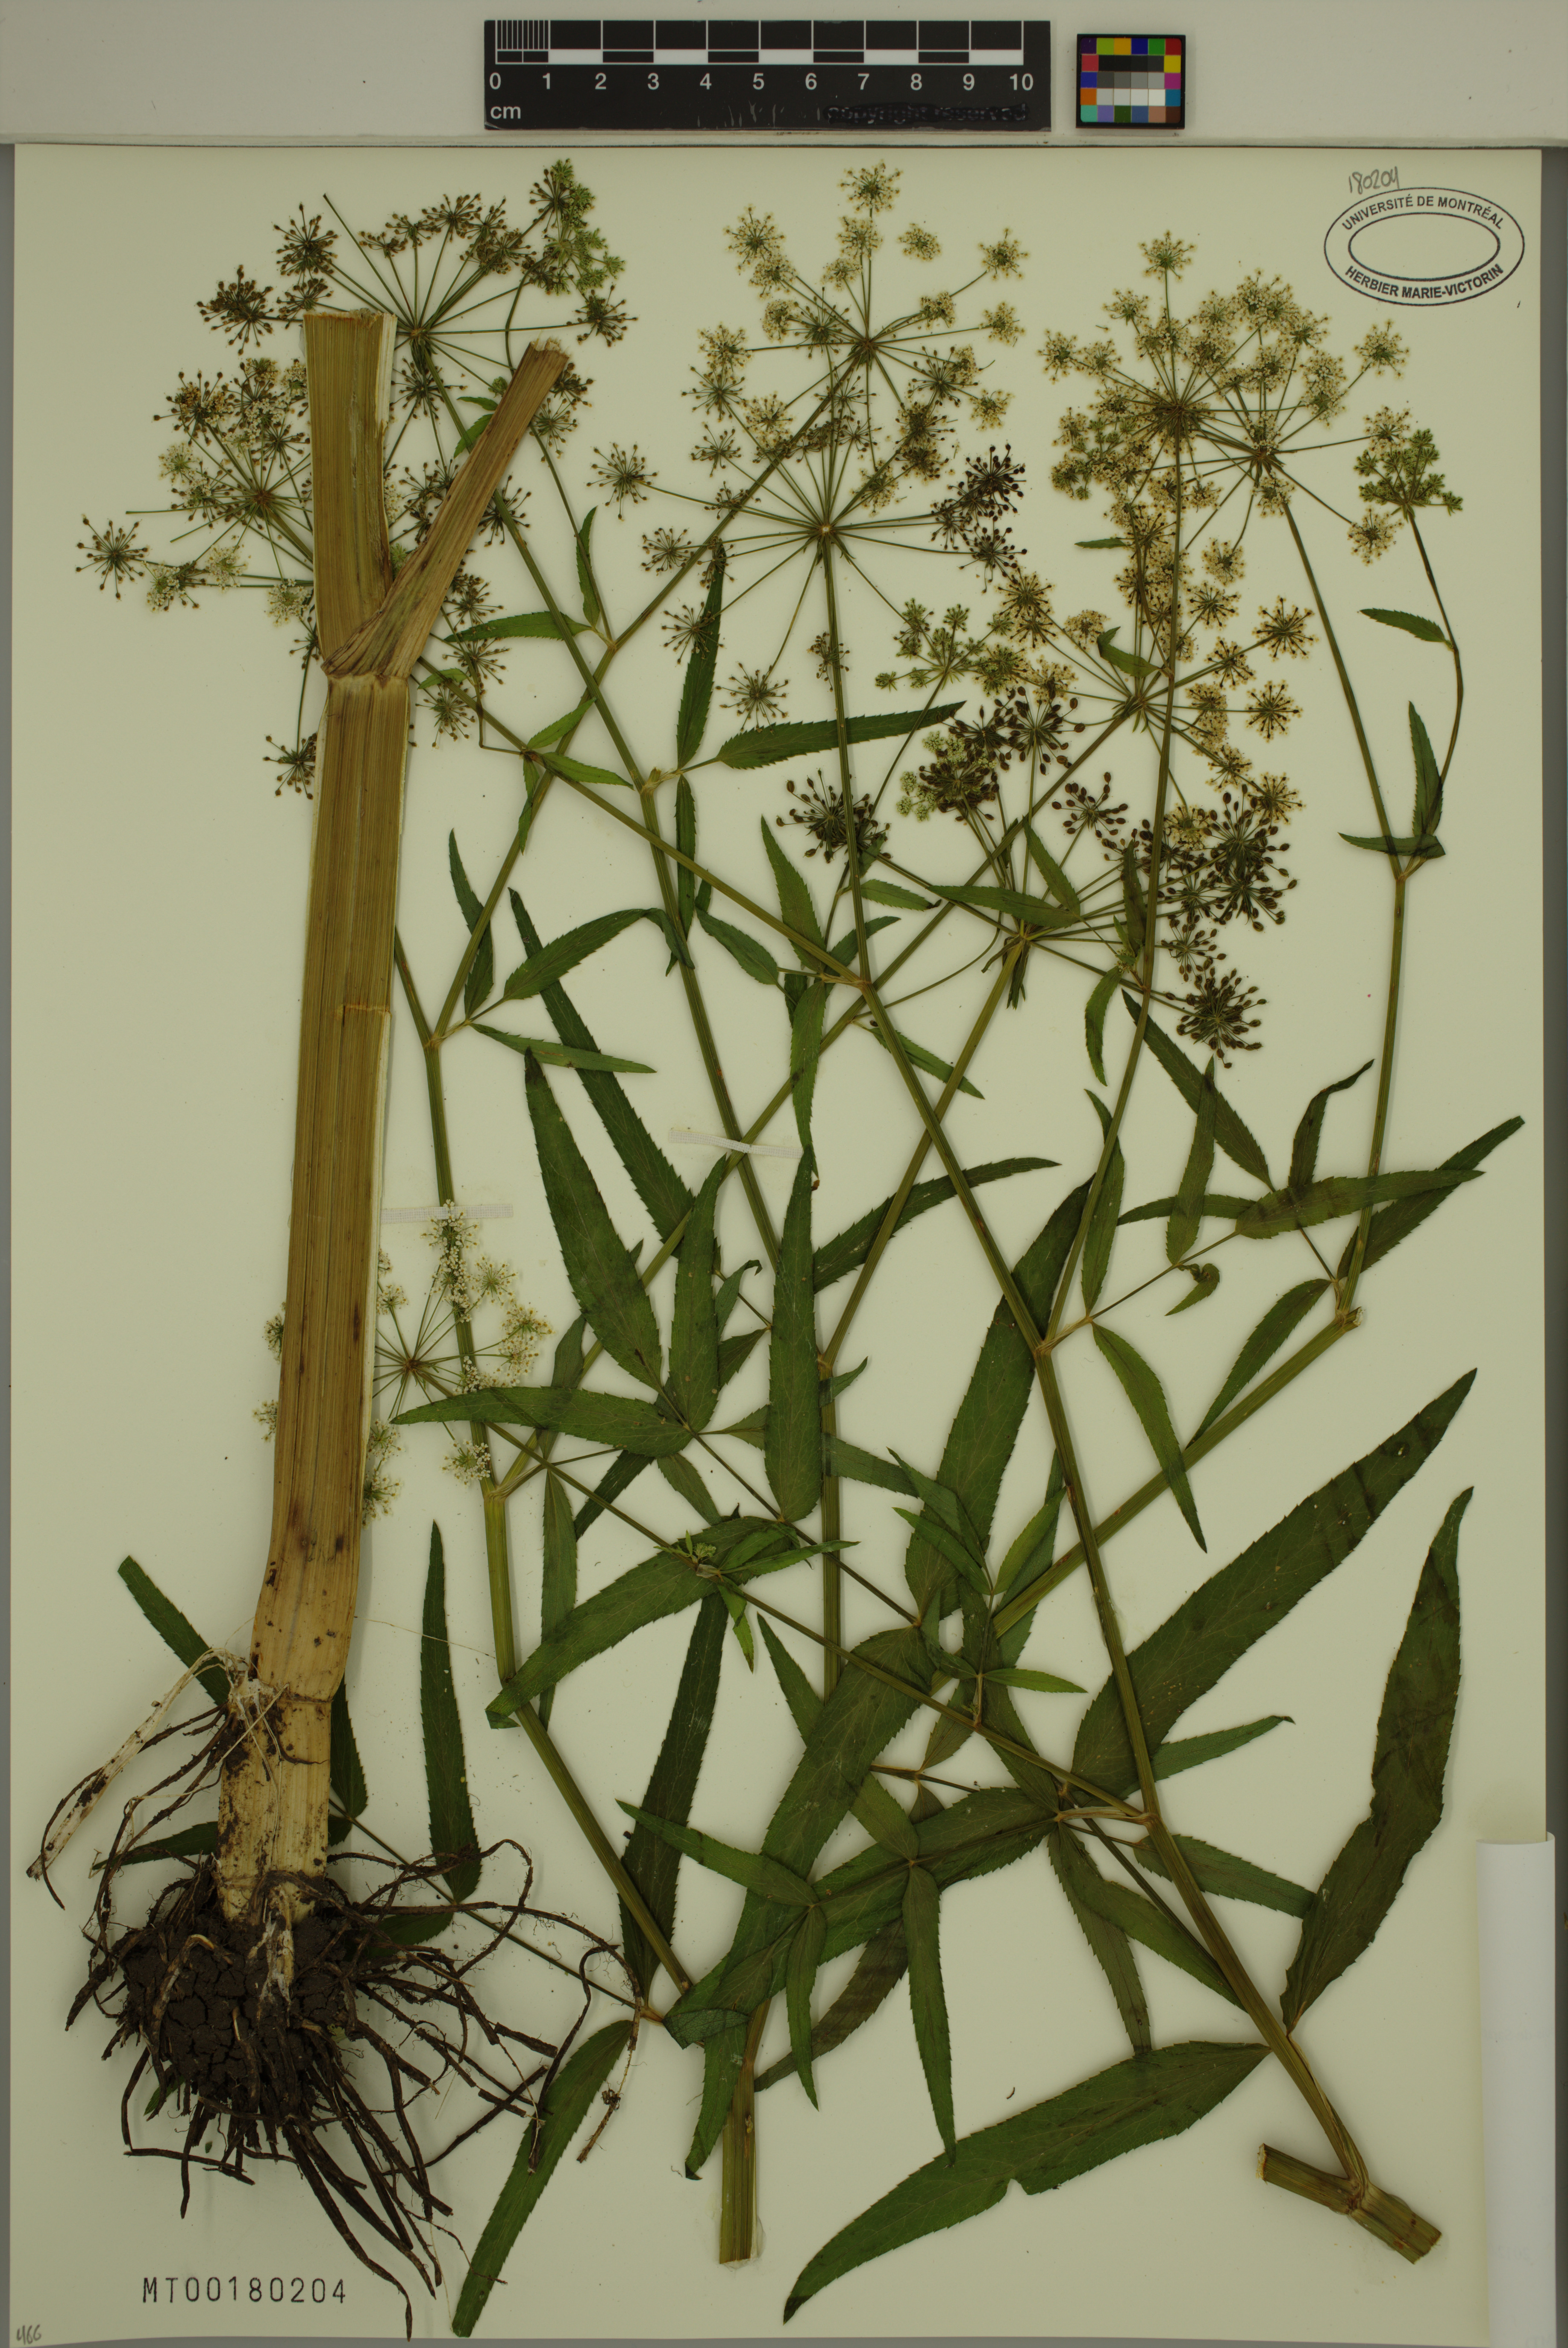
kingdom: Plantae
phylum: Tracheophyta
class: Magnoliopsida
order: Apiales
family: Apiaceae
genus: Sium
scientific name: Sium suave
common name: Hemlock water-parsnip
